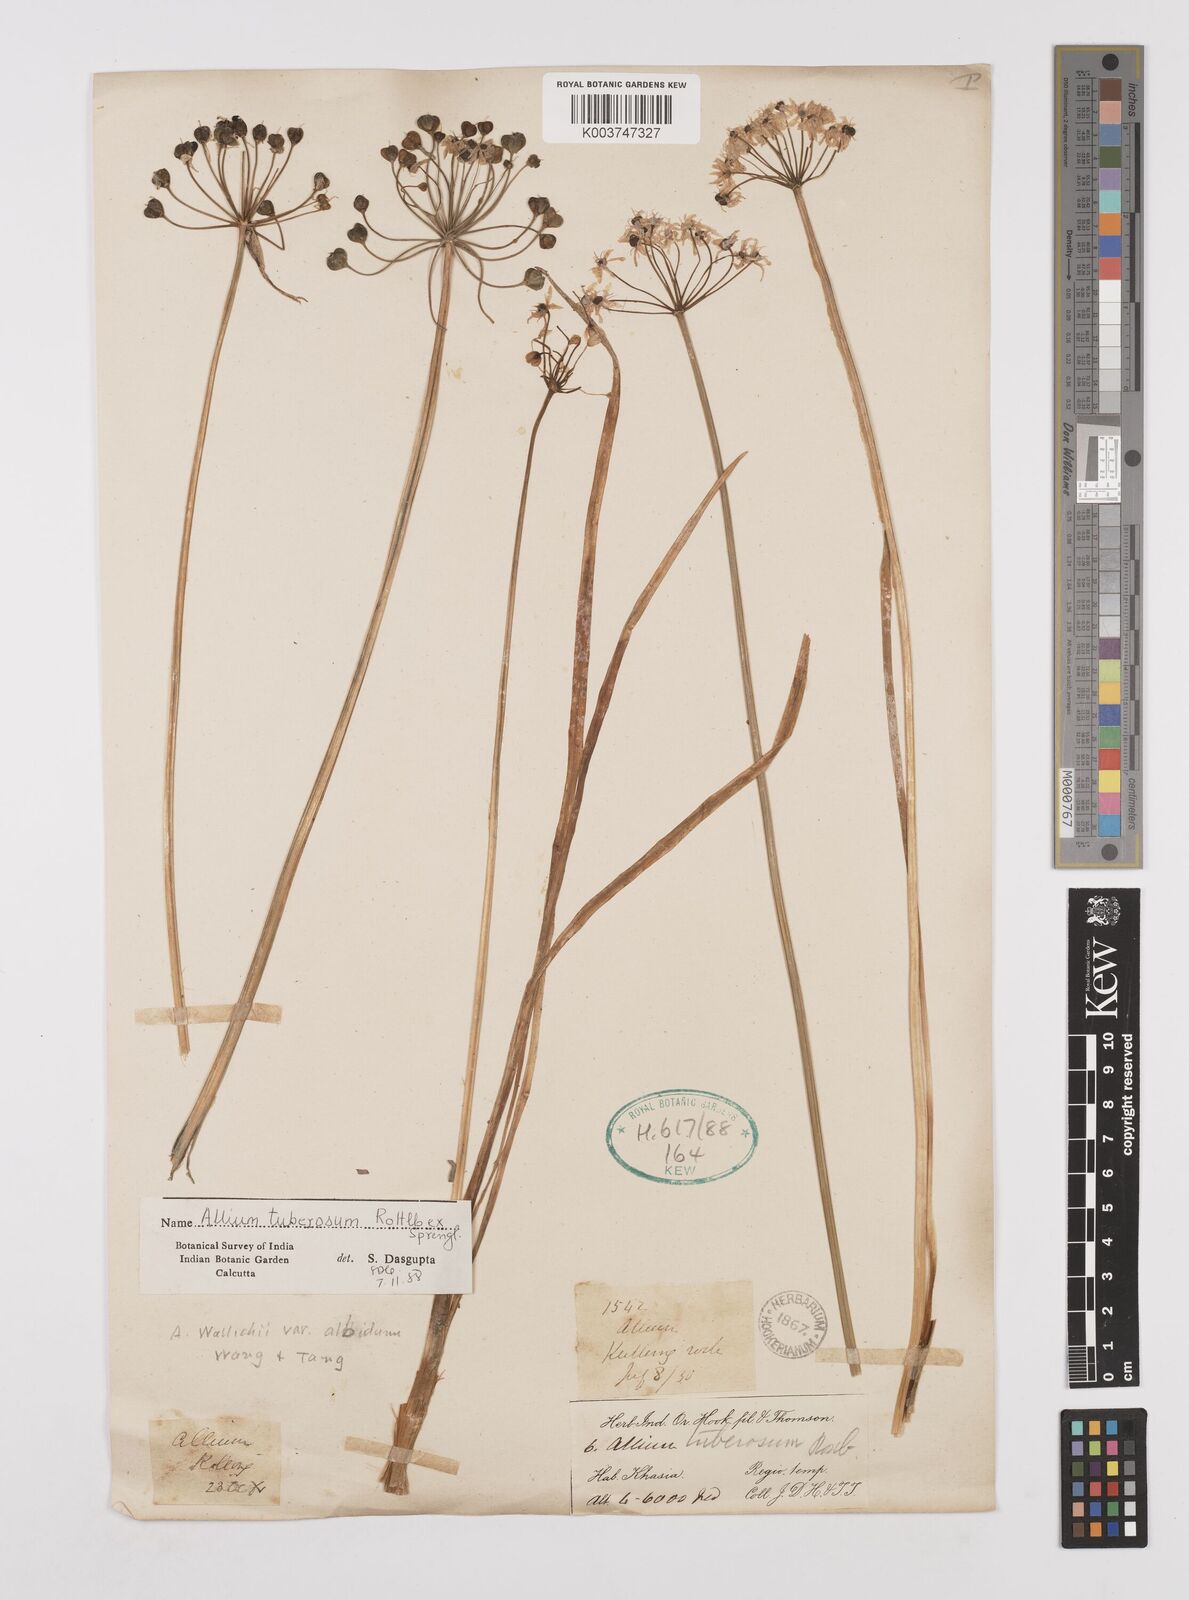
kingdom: Plantae
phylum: Tracheophyta
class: Liliopsida
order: Asparagales
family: Amaryllidaceae
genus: Allium
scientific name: Allium tuberosum
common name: Chinese chives
